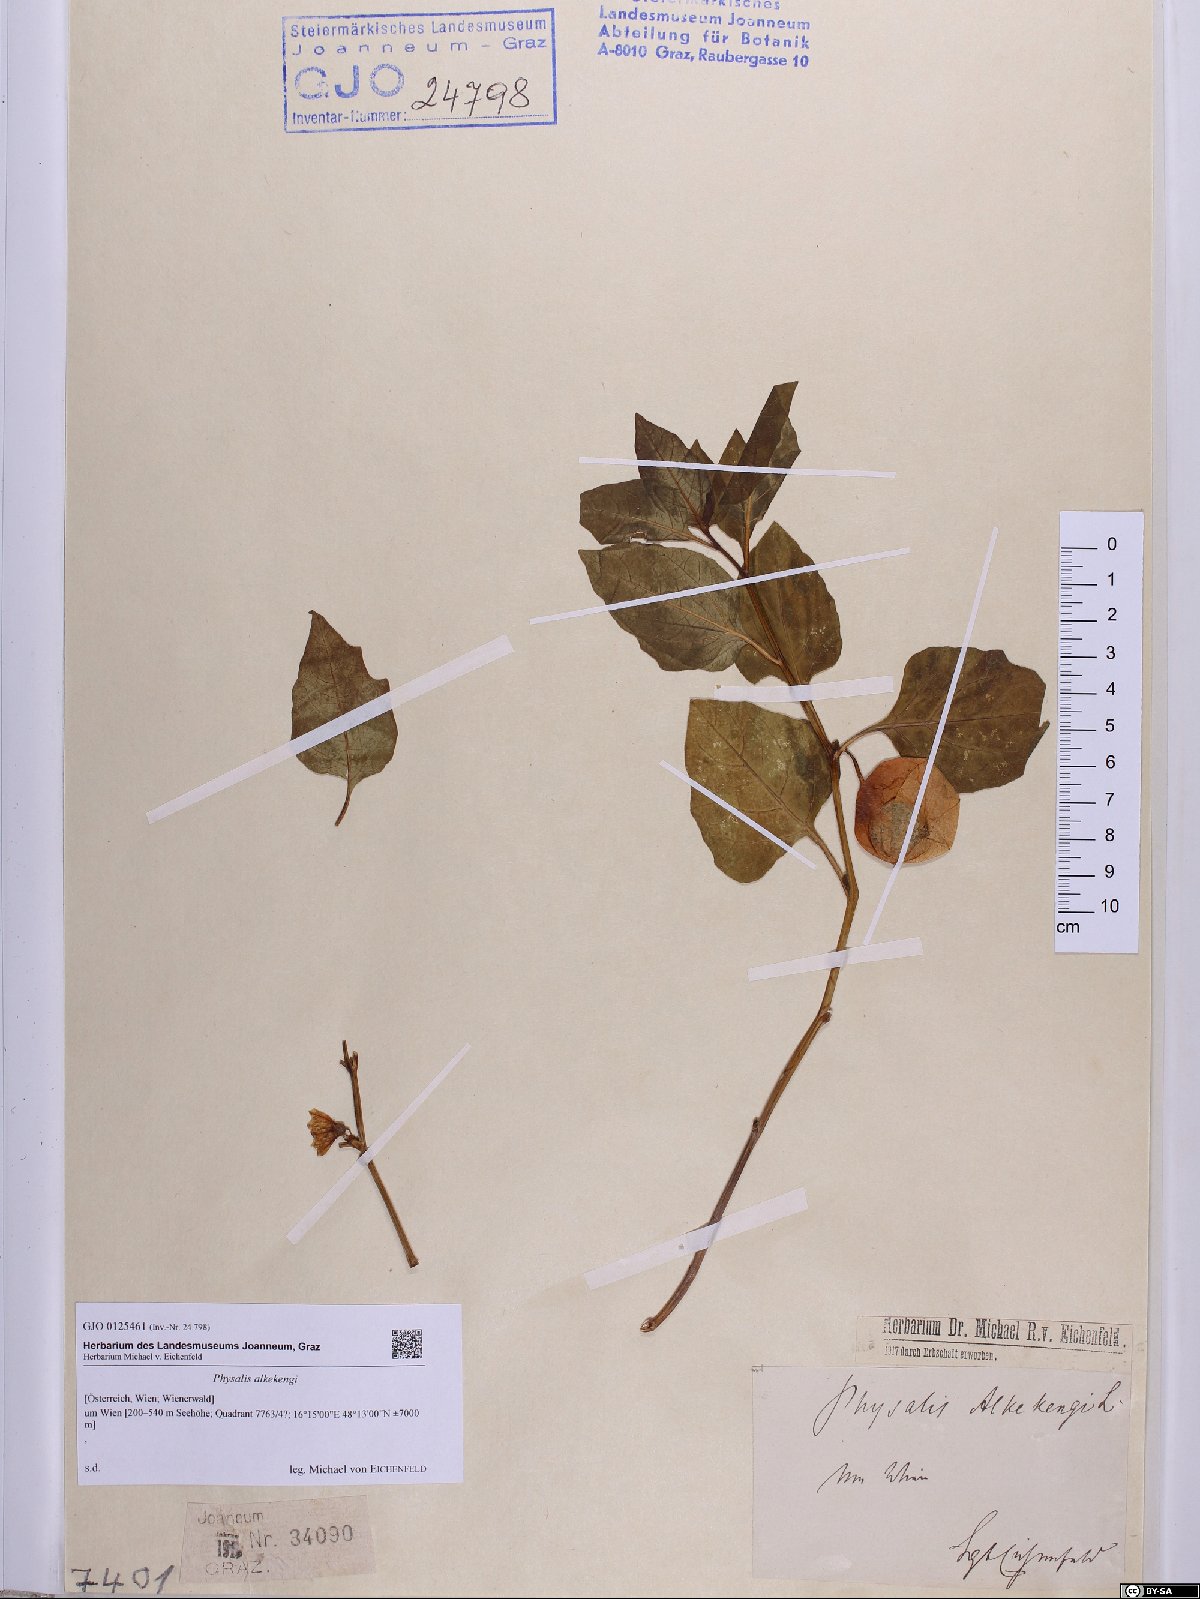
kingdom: Plantae
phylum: Tracheophyta
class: Magnoliopsida
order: Solanales
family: Solanaceae
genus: Alkekengi
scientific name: Alkekengi officinarum
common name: Japanese-lantern
